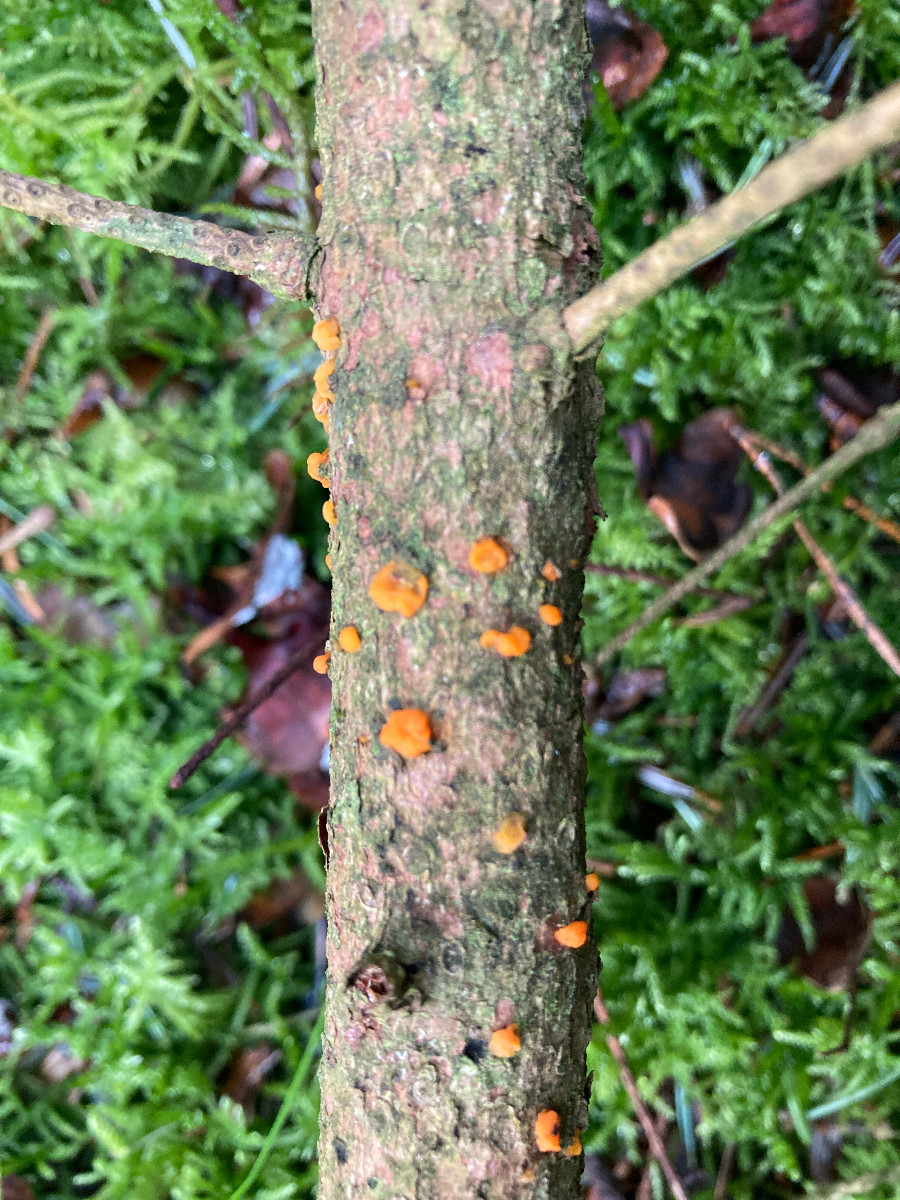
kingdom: Fungi
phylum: Basidiomycota
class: Dacrymycetes
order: Dacrymycetales
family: Dacrymycetaceae
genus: Dacrymyces
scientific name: Dacrymyces lacrymalis
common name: rynket tåresvamp
